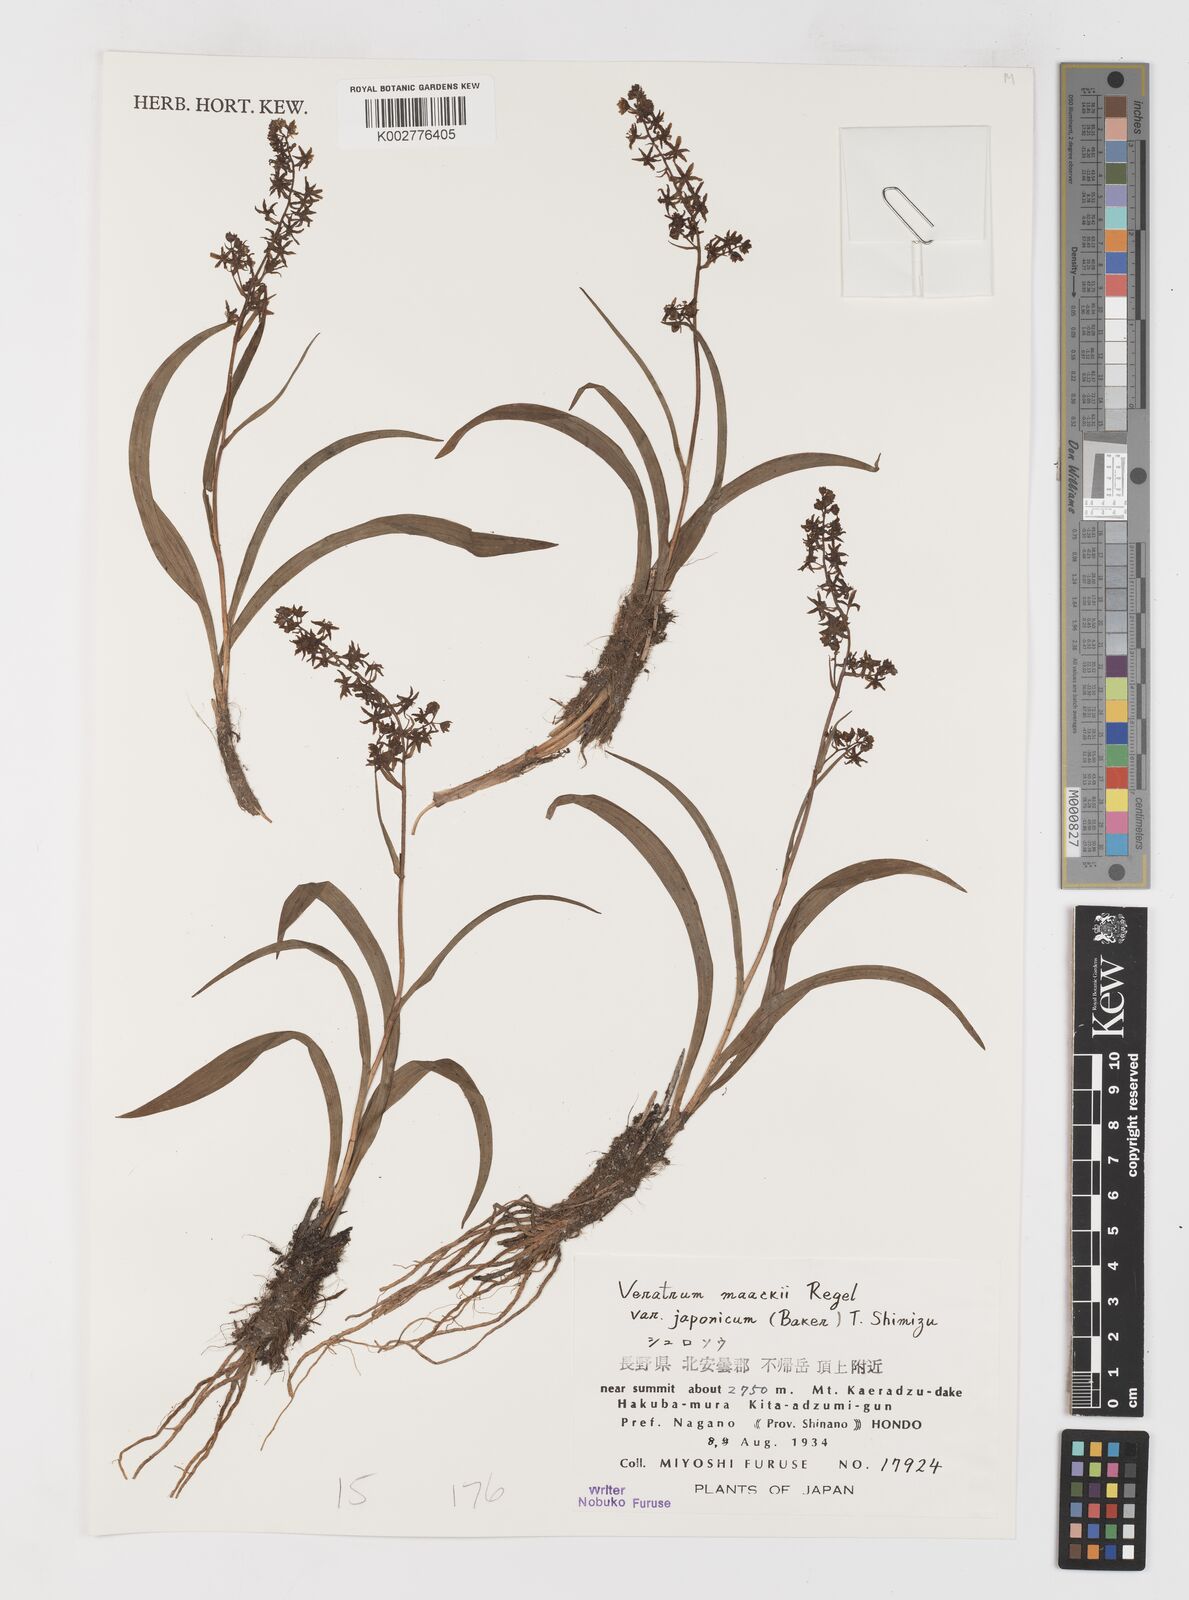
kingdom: Plantae
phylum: Tracheophyta
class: Liliopsida
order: Liliales
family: Melanthiaceae
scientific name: Melanthiaceae
